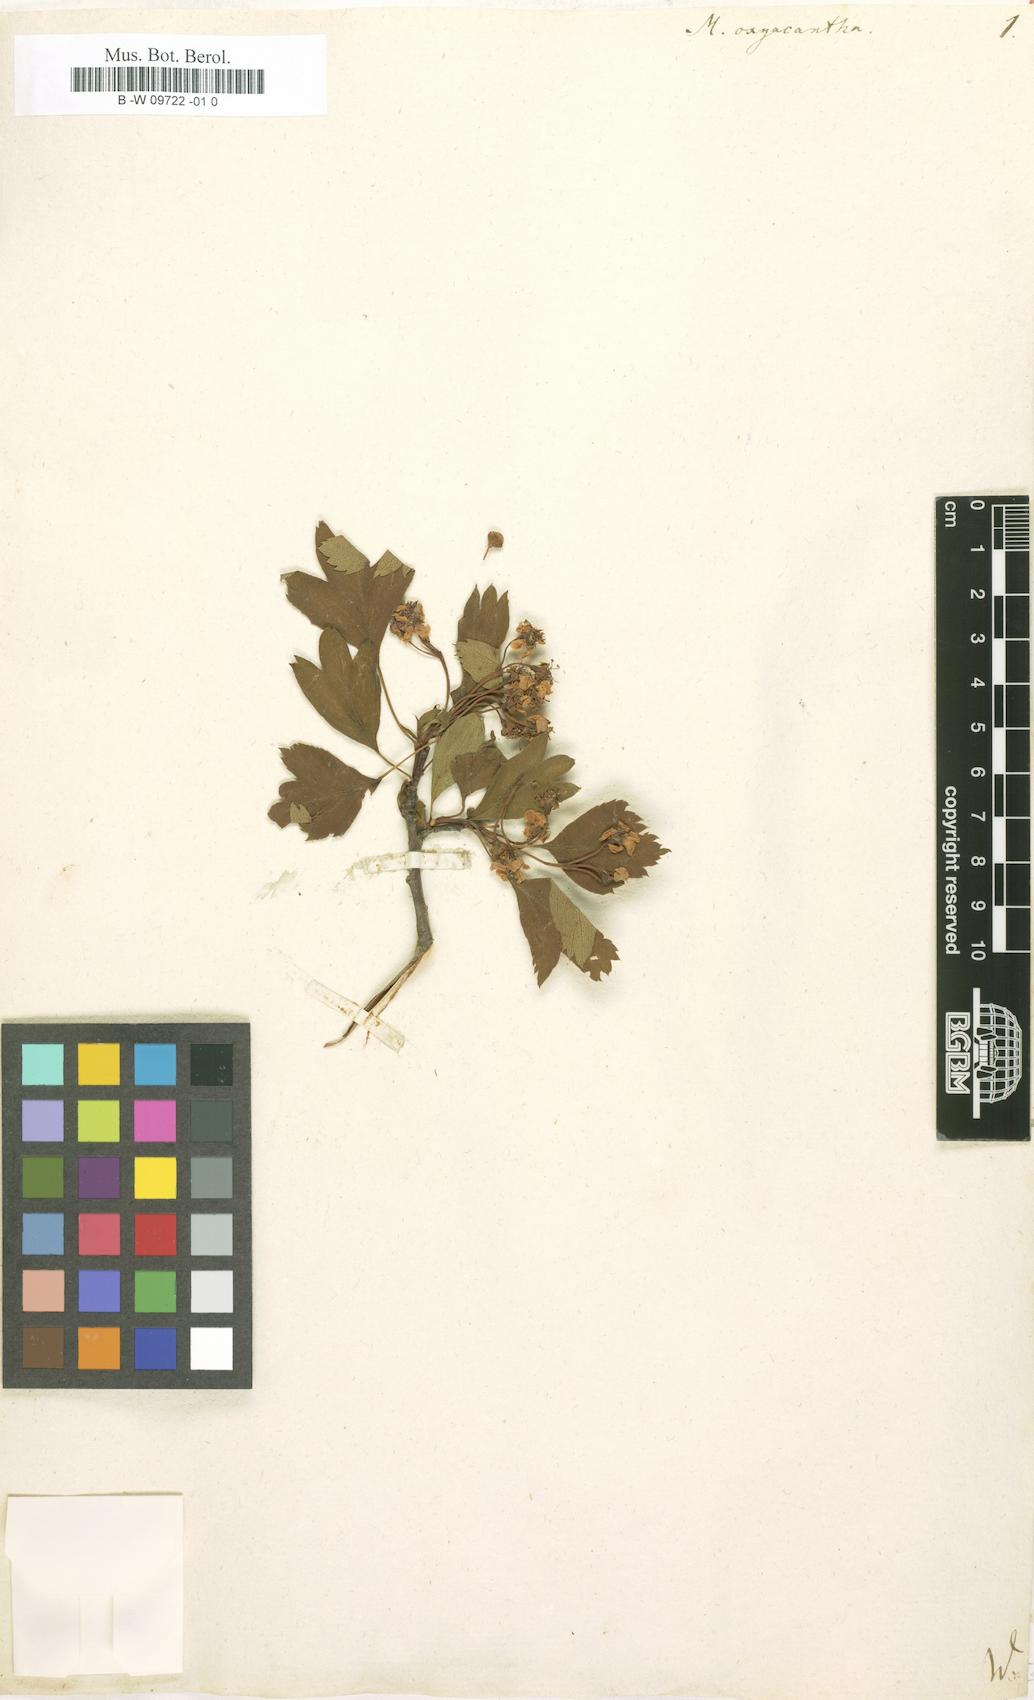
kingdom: Plantae
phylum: Tracheophyta
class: Magnoliopsida
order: Rosales
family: Rosaceae
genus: Crataegus
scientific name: Crataegus
